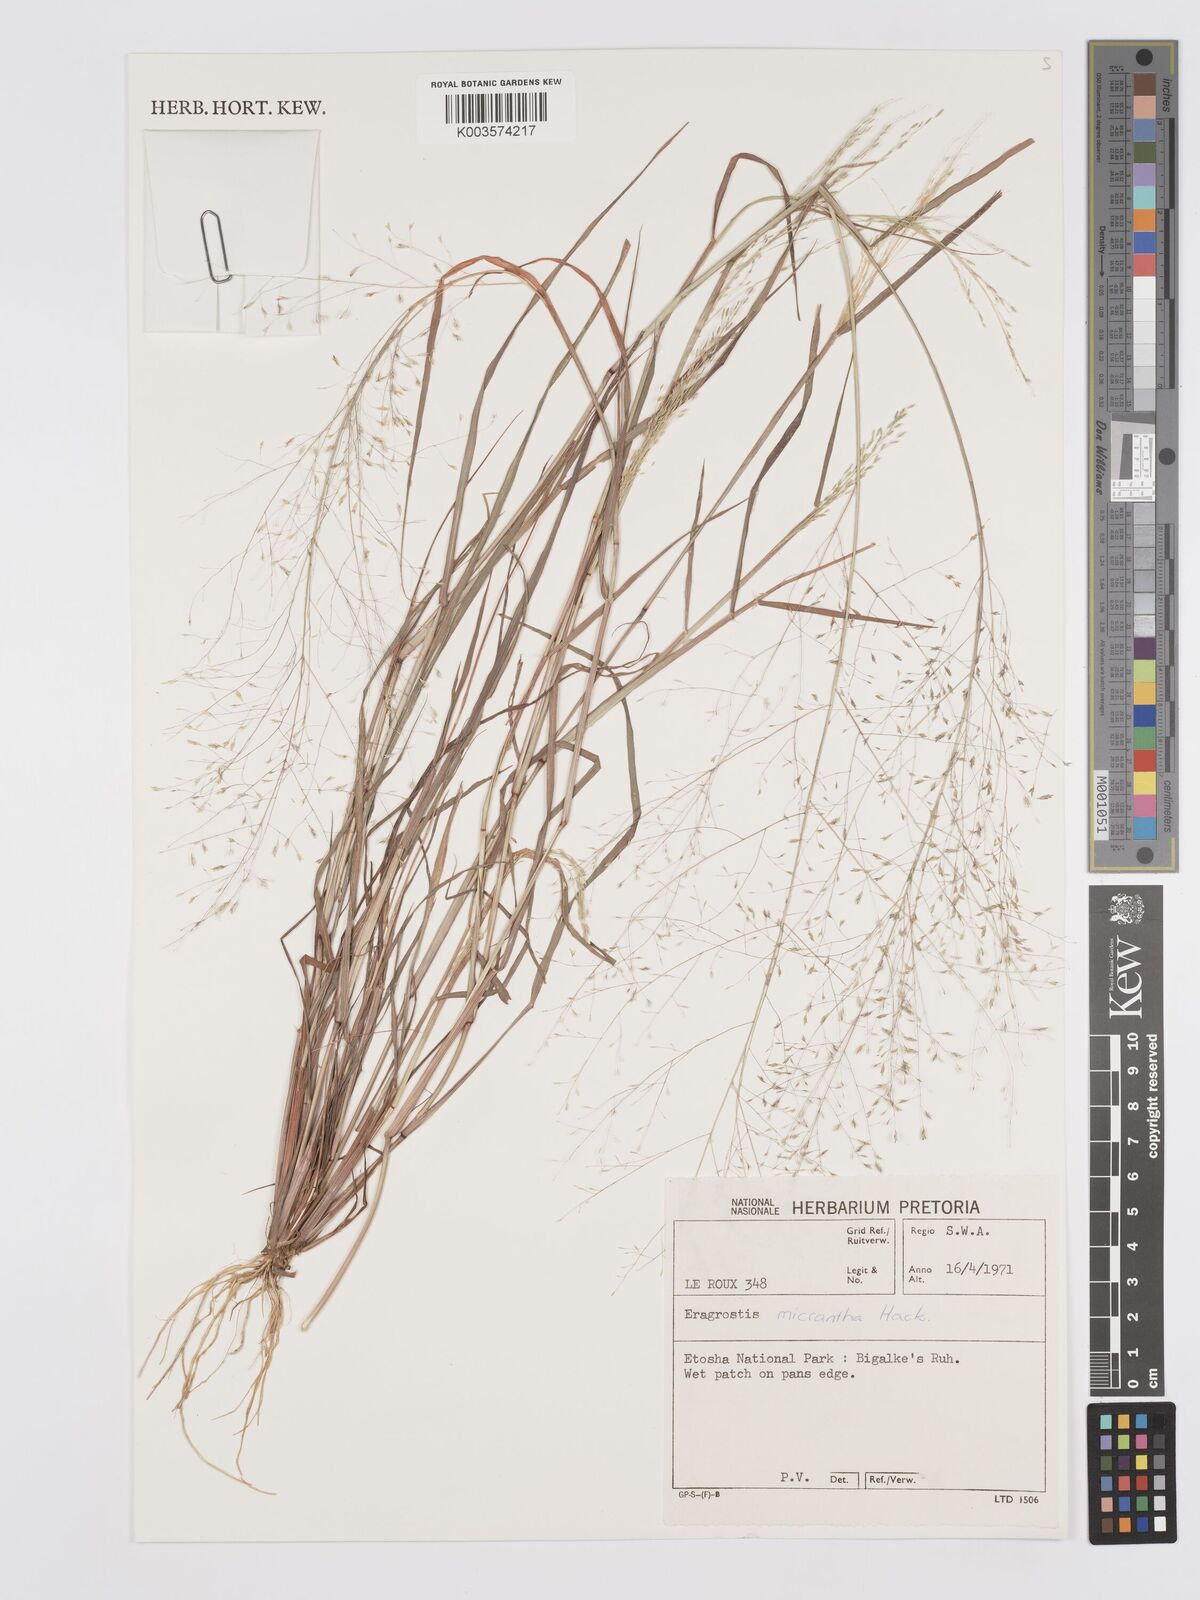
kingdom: Plantae
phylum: Tracheophyta
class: Liliopsida
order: Poales
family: Poaceae
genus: Eragrostis
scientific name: Eragrostis micrantha
